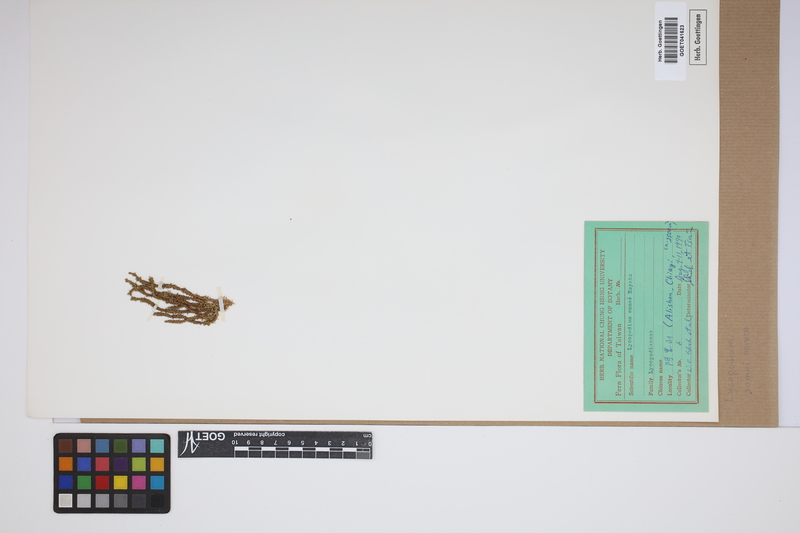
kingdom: Plantae
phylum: Tracheophyta
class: Lycopodiopsida
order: Lycopodiales
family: Lycopodiaceae
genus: Huperzia
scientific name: Huperzia somae
